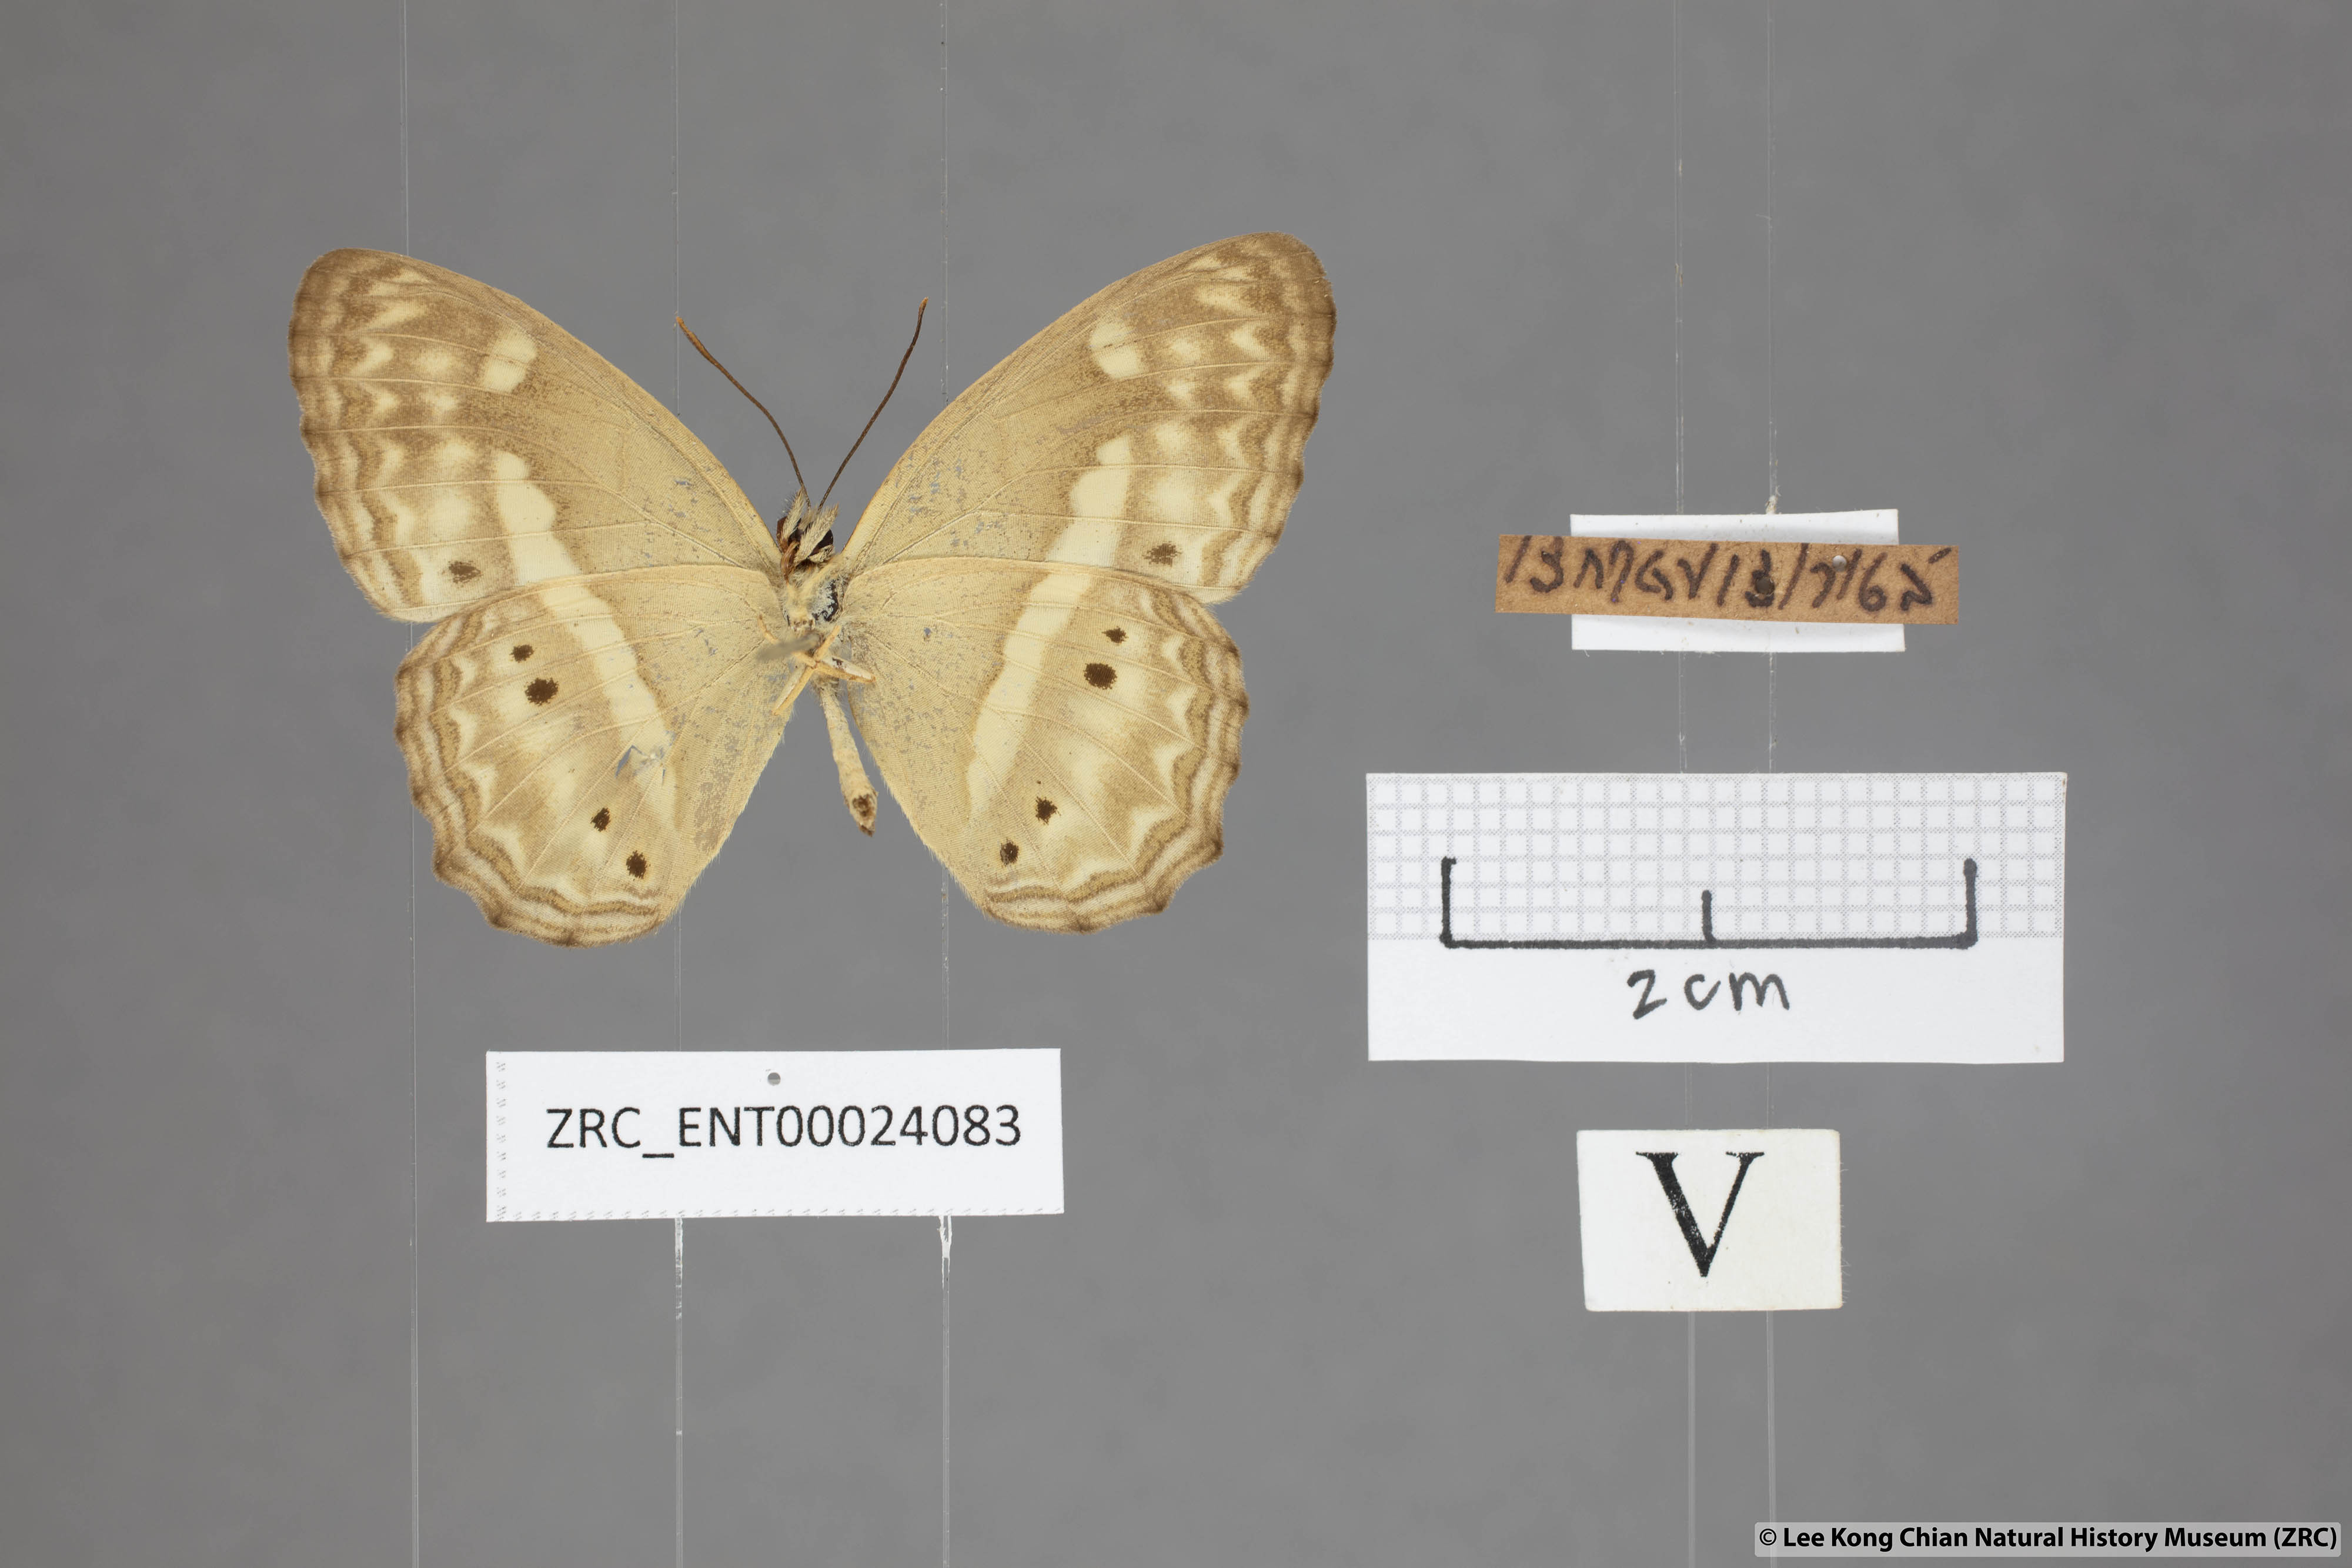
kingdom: Animalia
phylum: Arthropoda
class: Insecta
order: Lepidoptera
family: Nymphalidae
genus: Cirrochroa
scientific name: Cirrochroa fasciata
